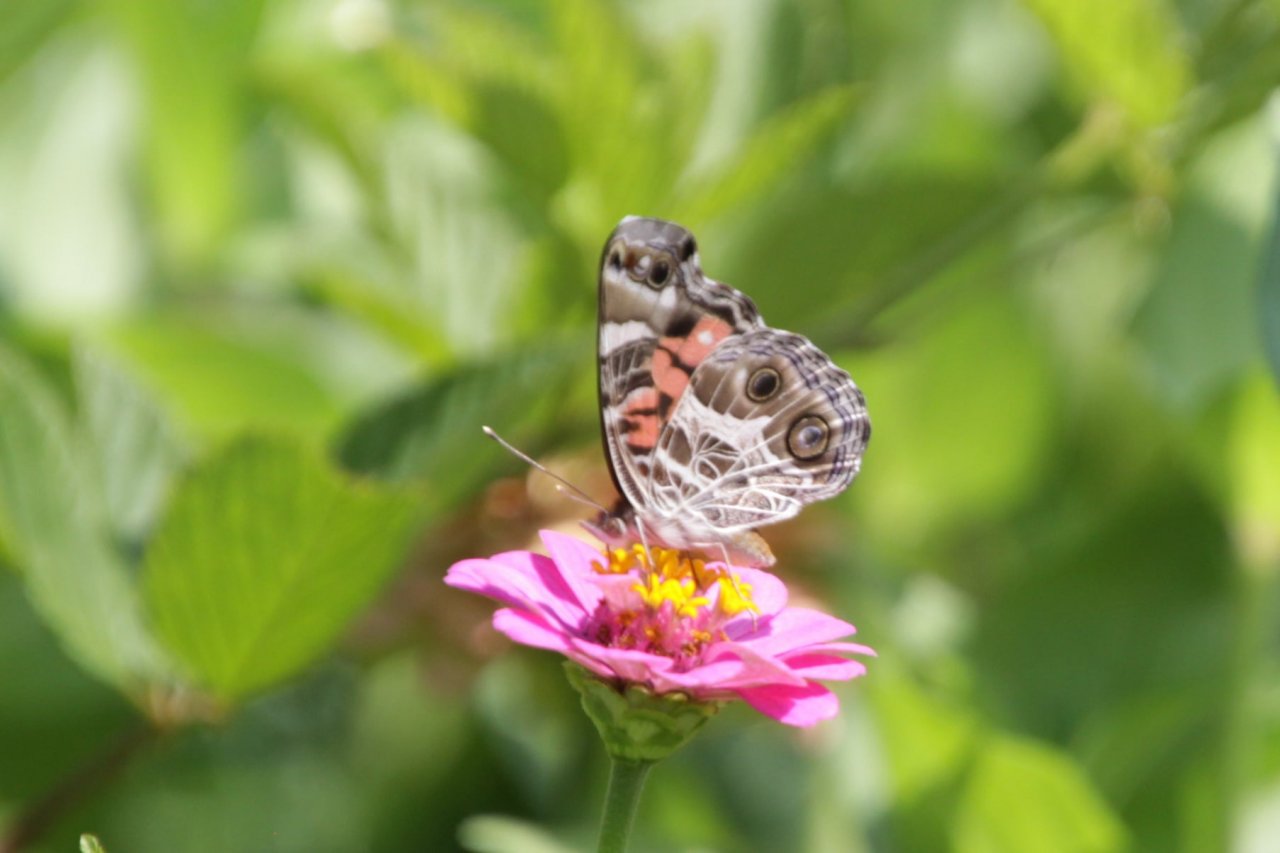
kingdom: Animalia
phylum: Arthropoda
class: Insecta
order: Lepidoptera
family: Nymphalidae
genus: Vanessa
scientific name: Vanessa virginiensis
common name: American Lady
